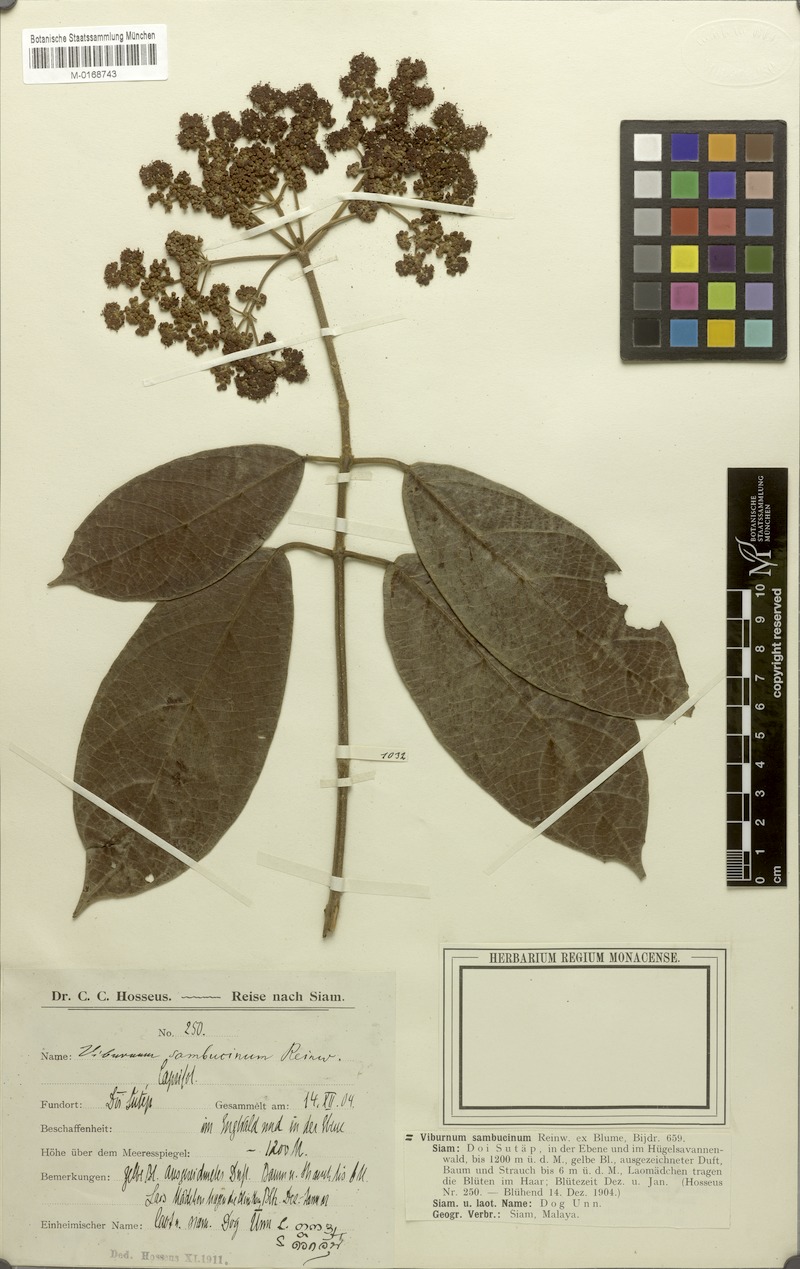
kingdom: Plantae
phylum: Tracheophyta
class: Magnoliopsida
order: Dipsacales
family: Viburnaceae
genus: Viburnum
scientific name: Viburnum sambucinum
